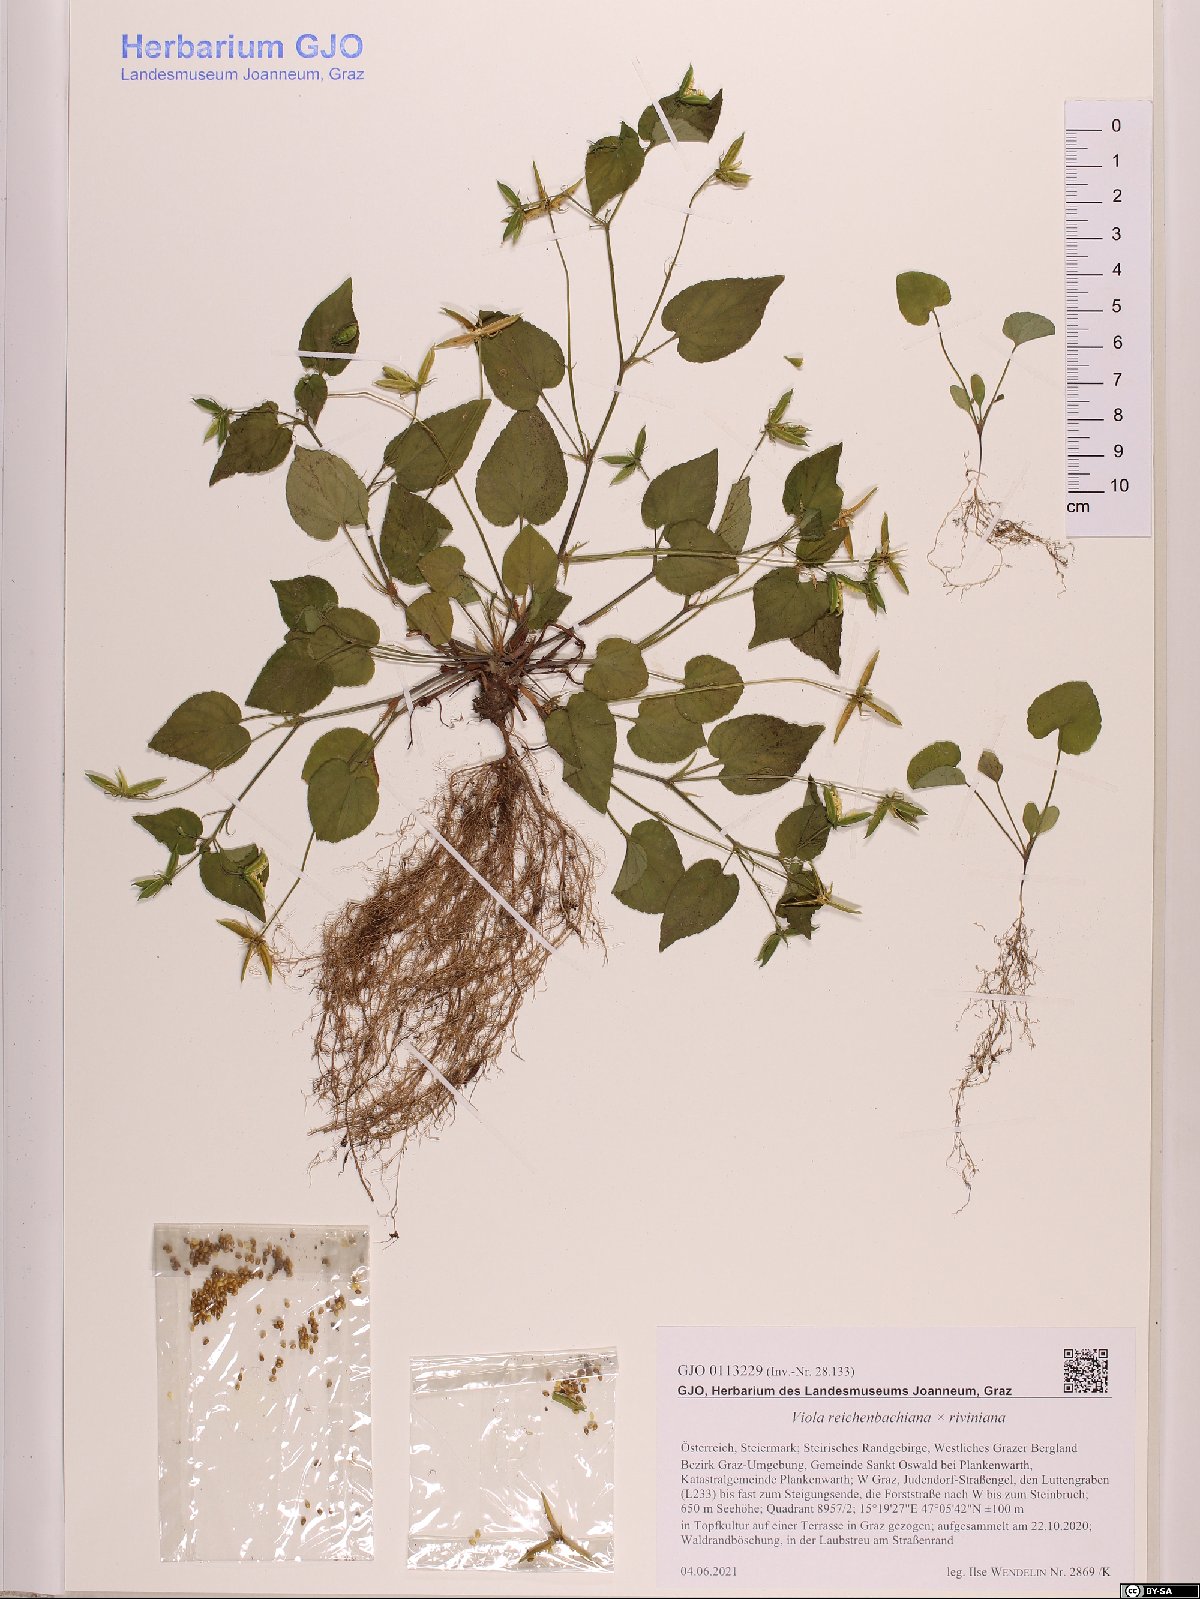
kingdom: Plantae
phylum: Tracheophyta
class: Magnoliopsida
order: Malpighiales
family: Violaceae
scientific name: Violaceae
